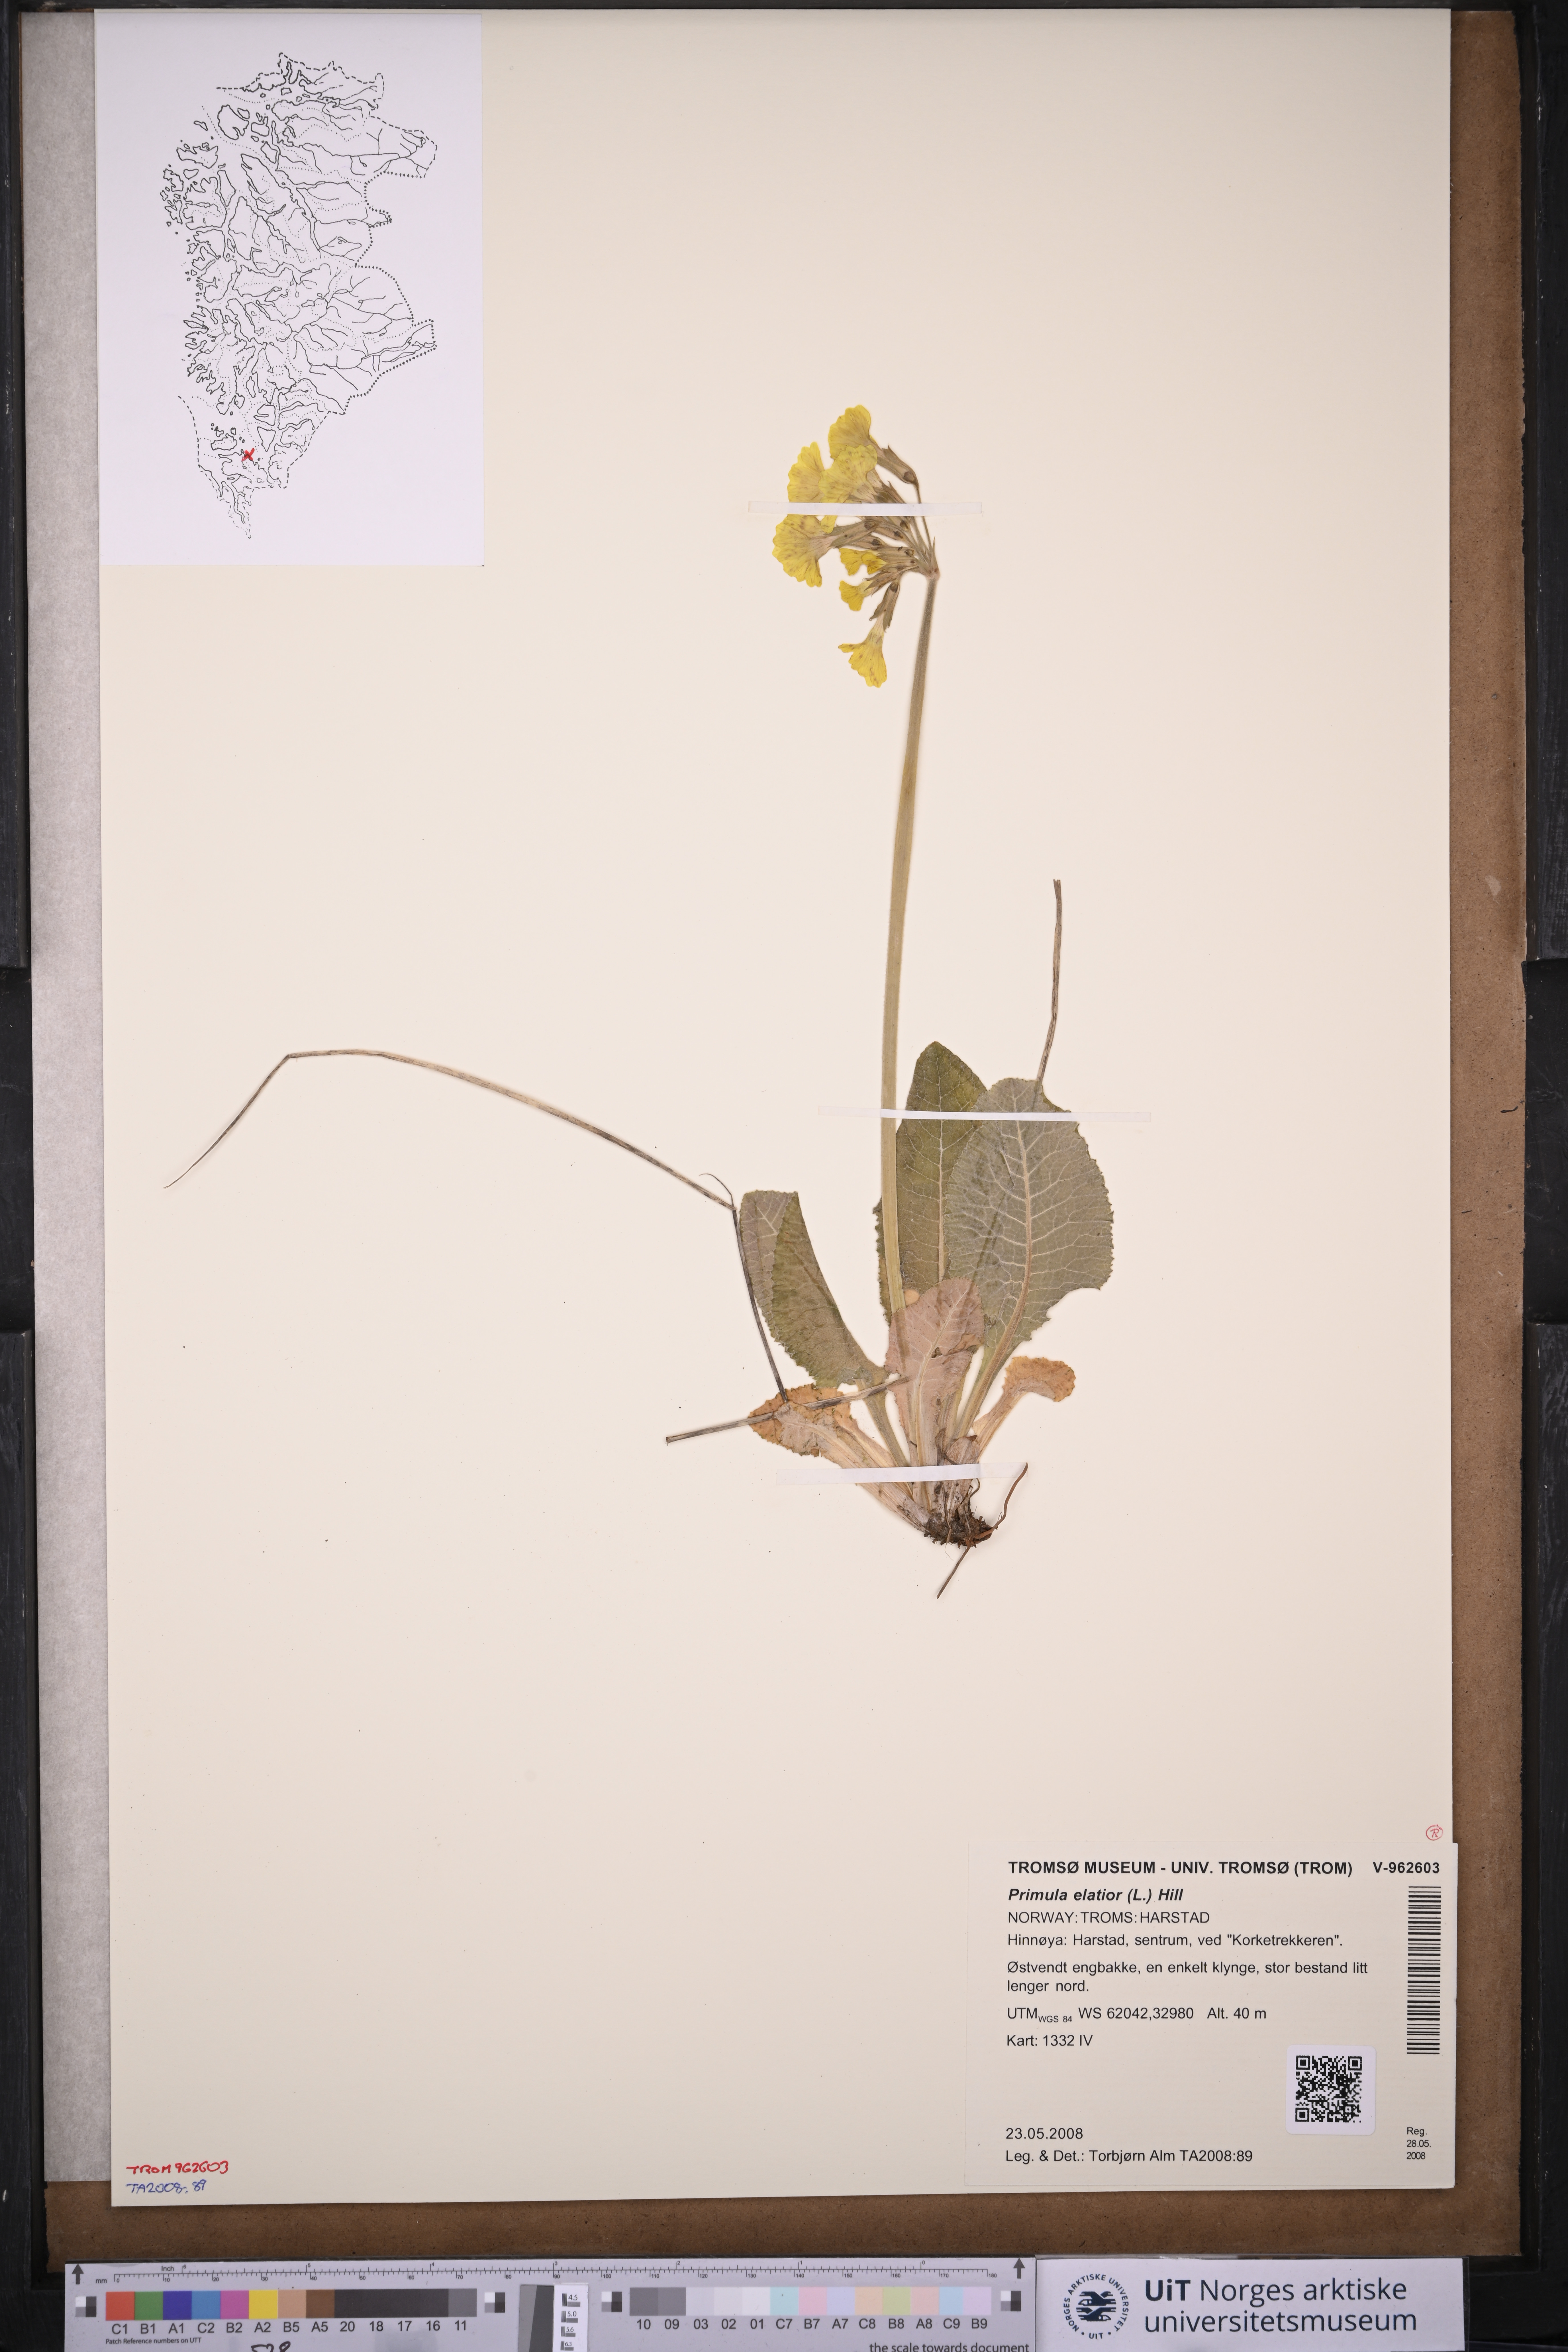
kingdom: Plantae
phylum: Tracheophyta
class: Magnoliopsida
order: Ericales
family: Primulaceae
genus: Primula
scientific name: Primula elatior
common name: Oxlip
